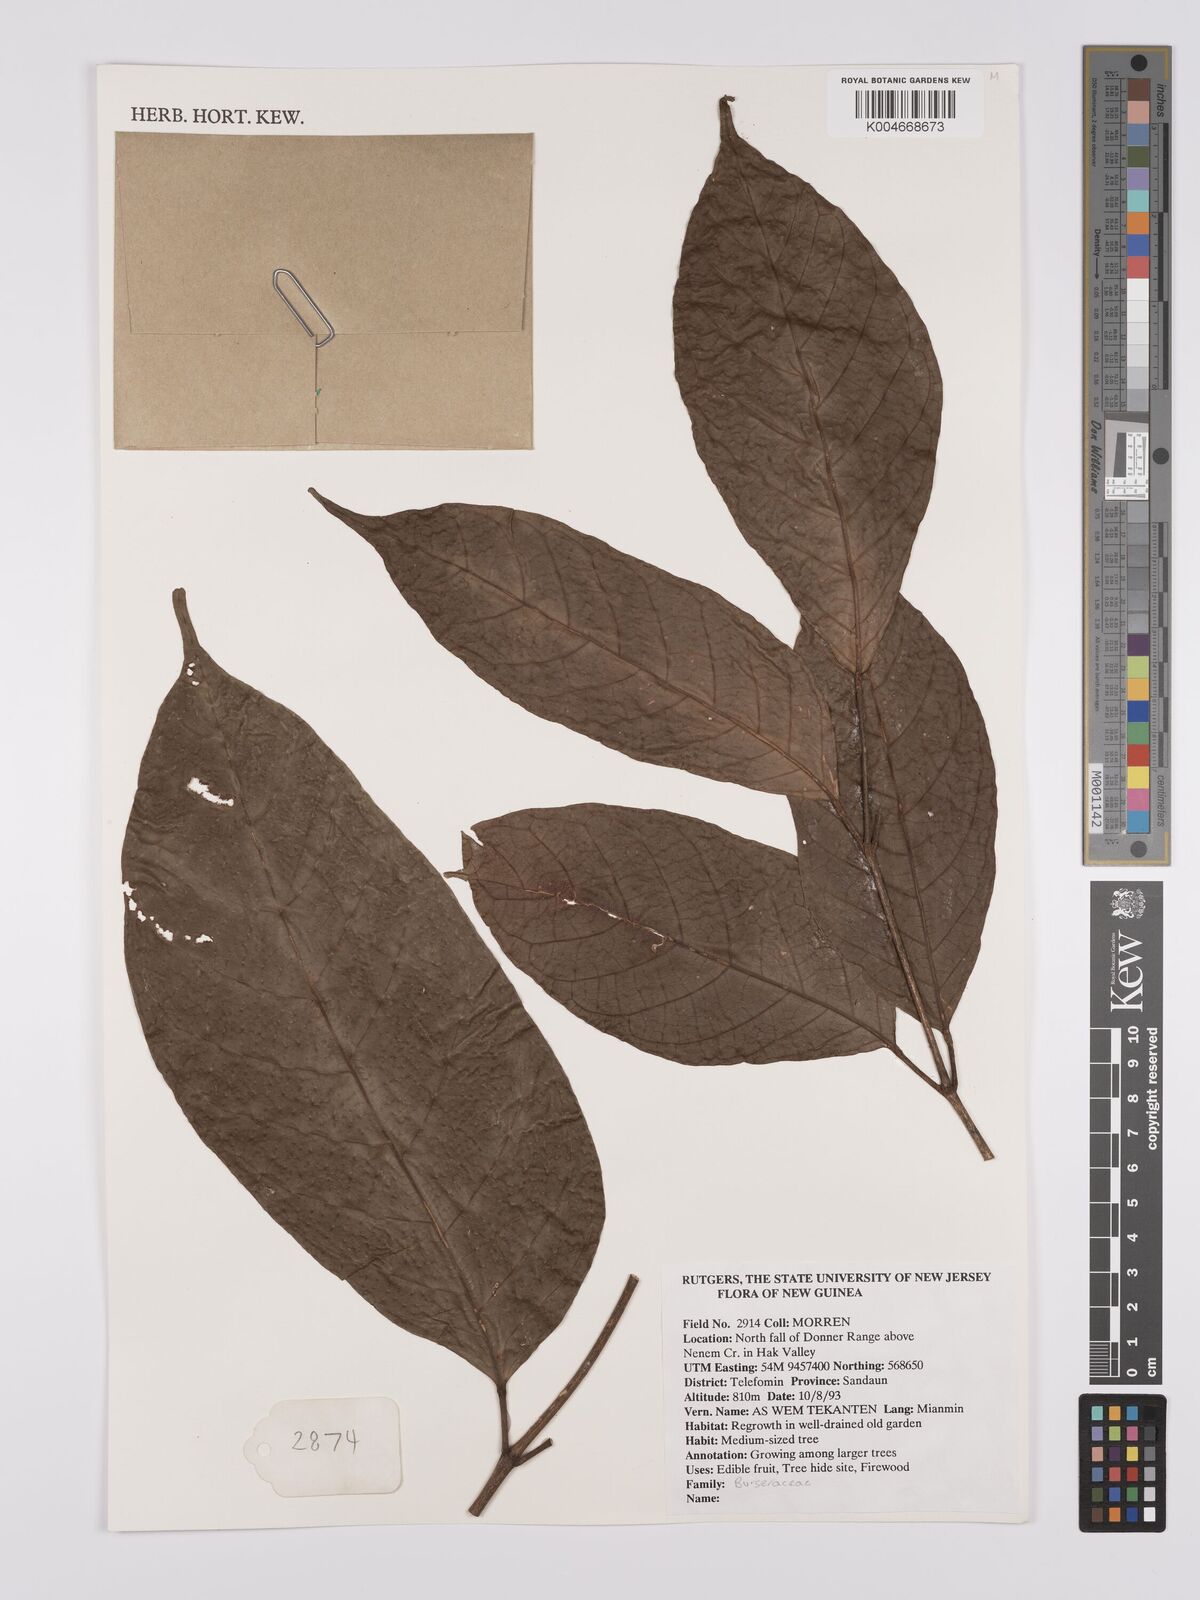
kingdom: Plantae
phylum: Tracheophyta
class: Magnoliopsida
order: Sapindales
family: Burseraceae
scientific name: Burseraceae
